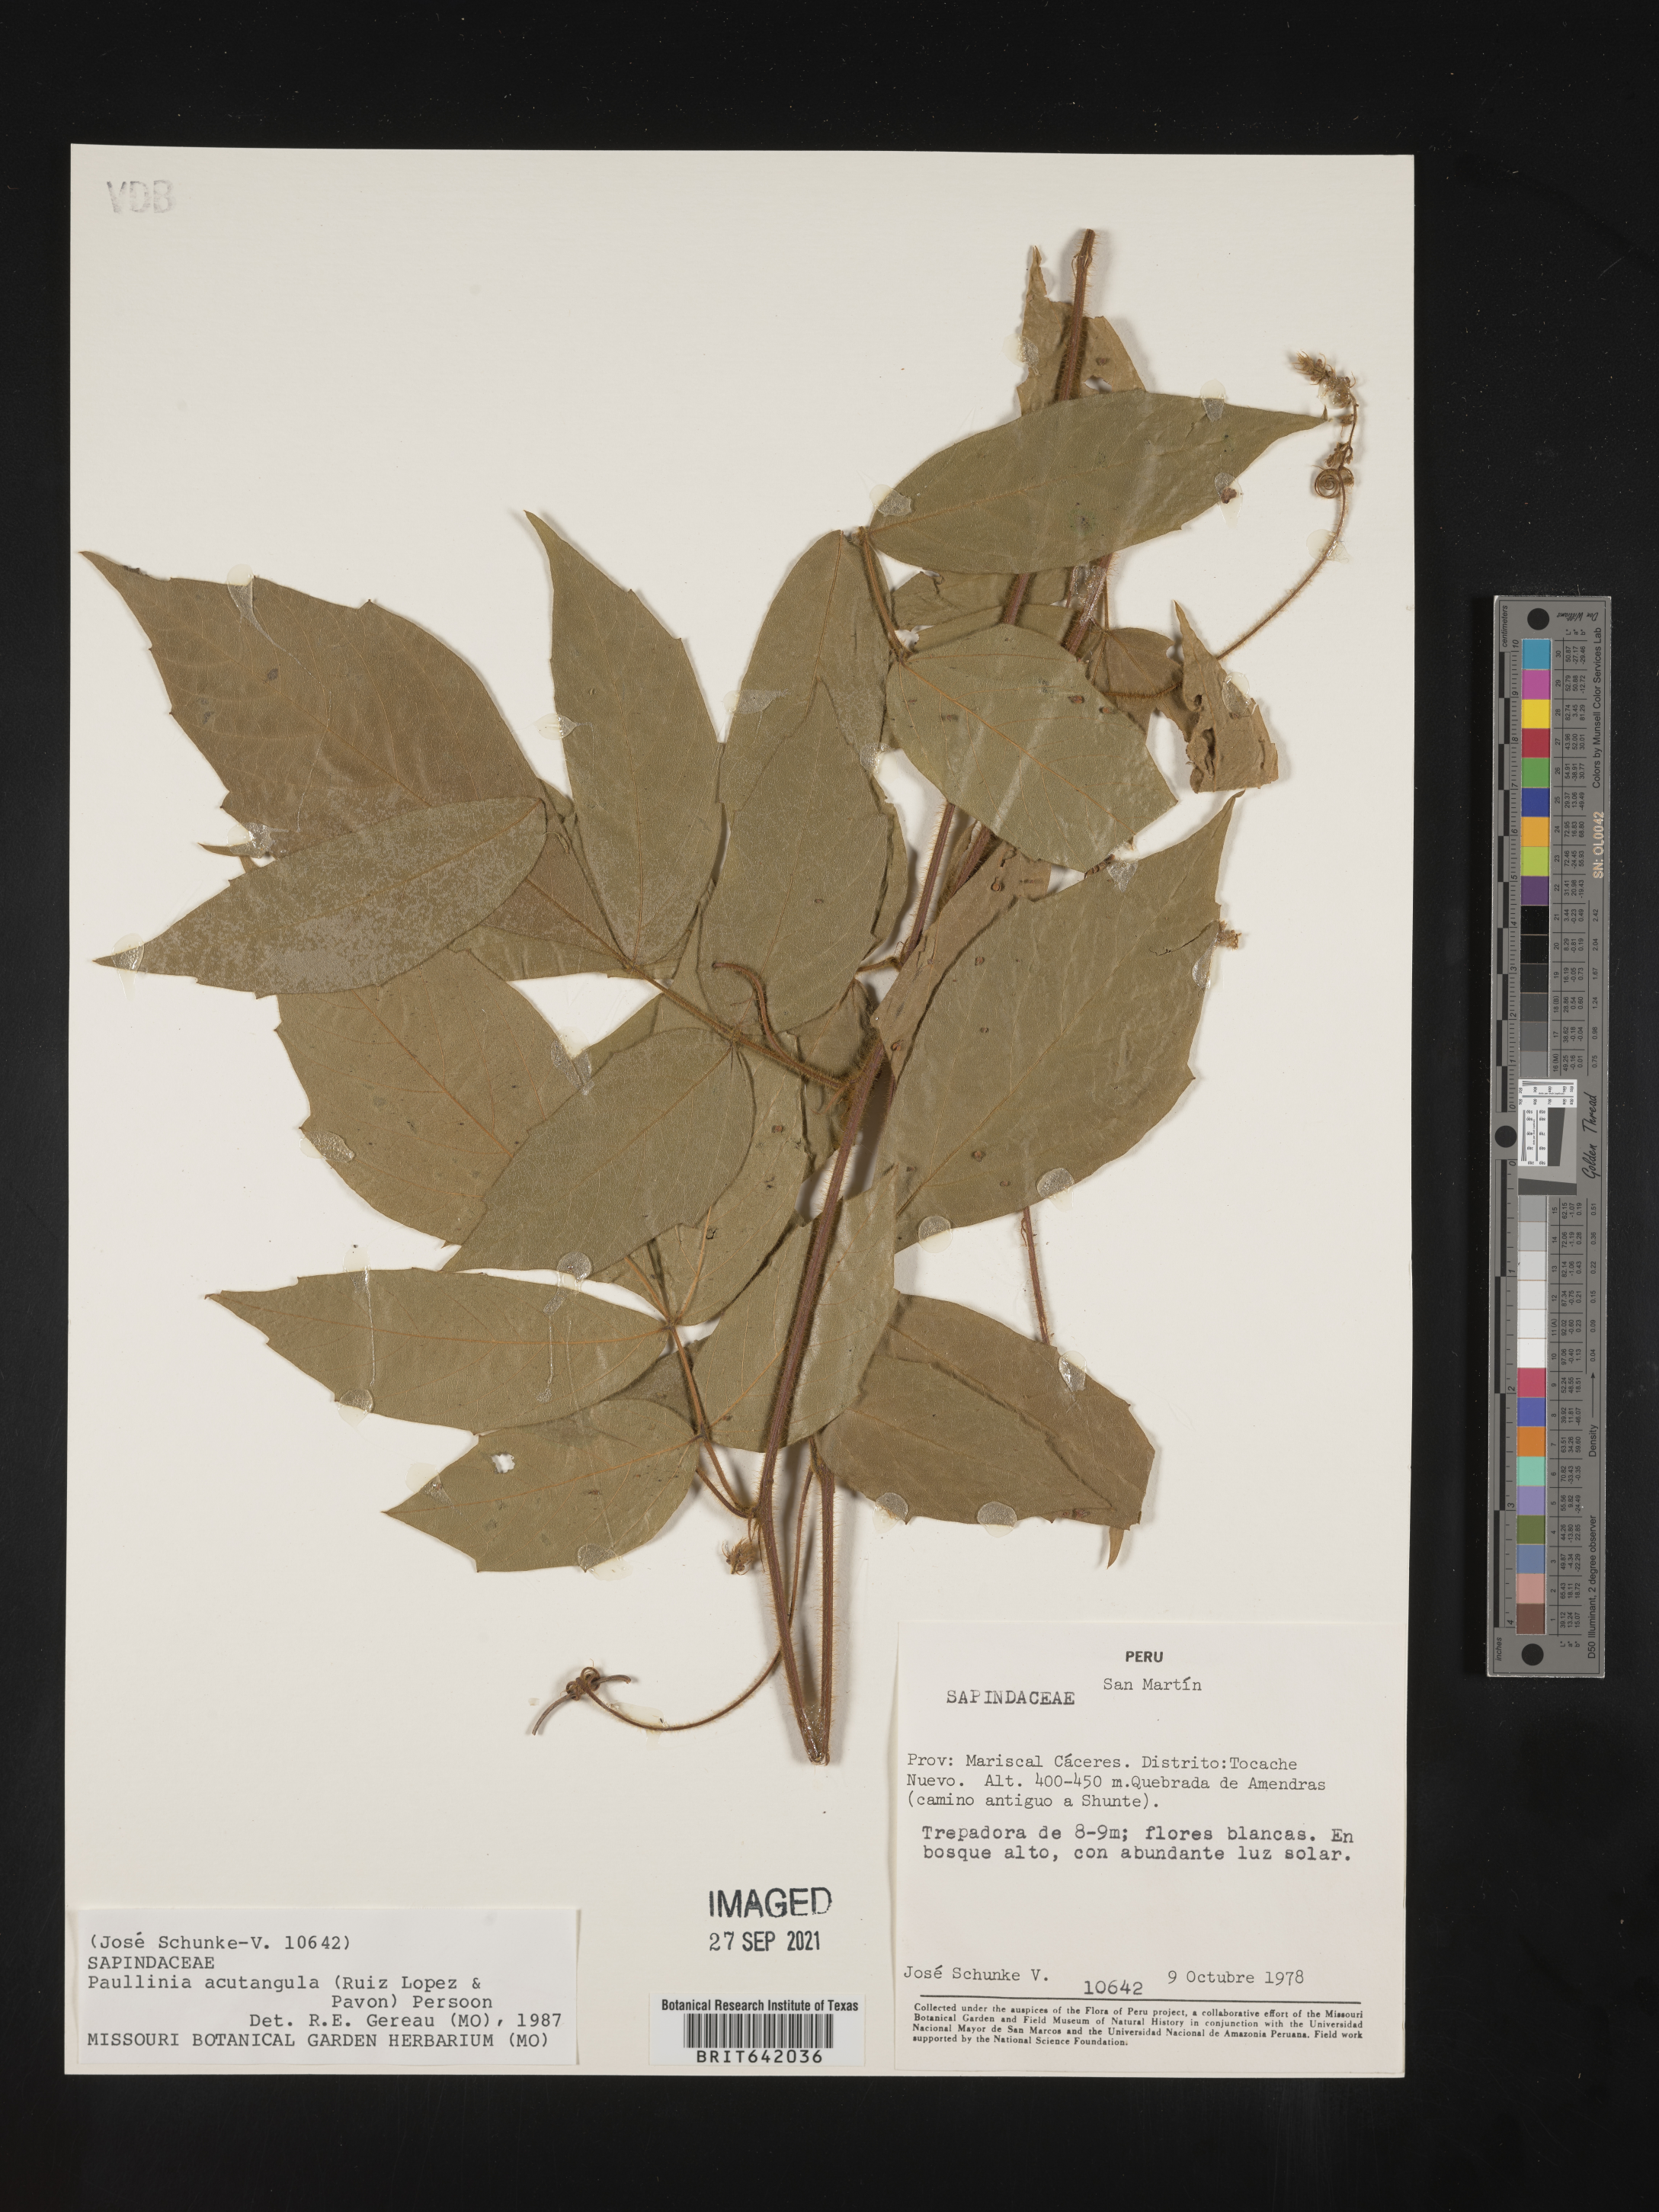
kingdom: Plantae
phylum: Tracheophyta
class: Magnoliopsida
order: Sapindales
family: Sapindaceae
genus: Paullinia
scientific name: Paullinia
